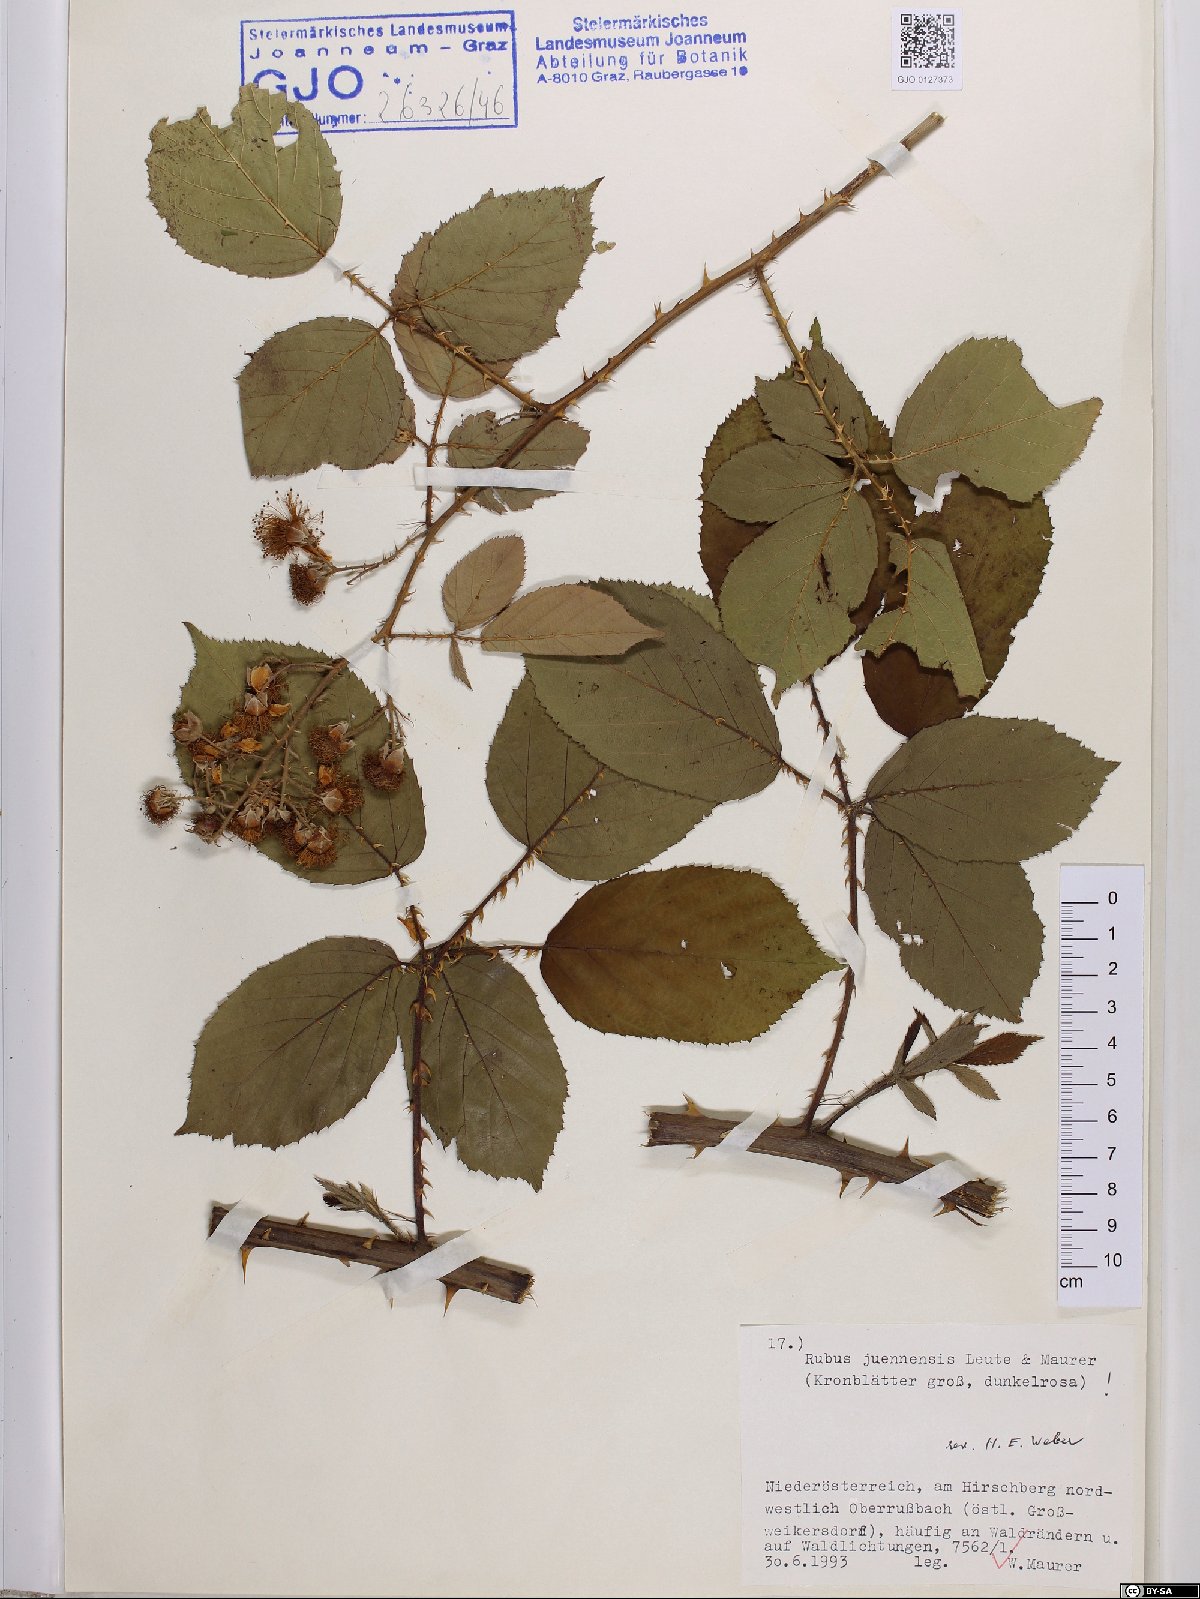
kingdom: Plantae
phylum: Tracheophyta
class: Magnoliopsida
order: Rosales
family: Rosaceae
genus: Rubus
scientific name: Rubus juennensis
